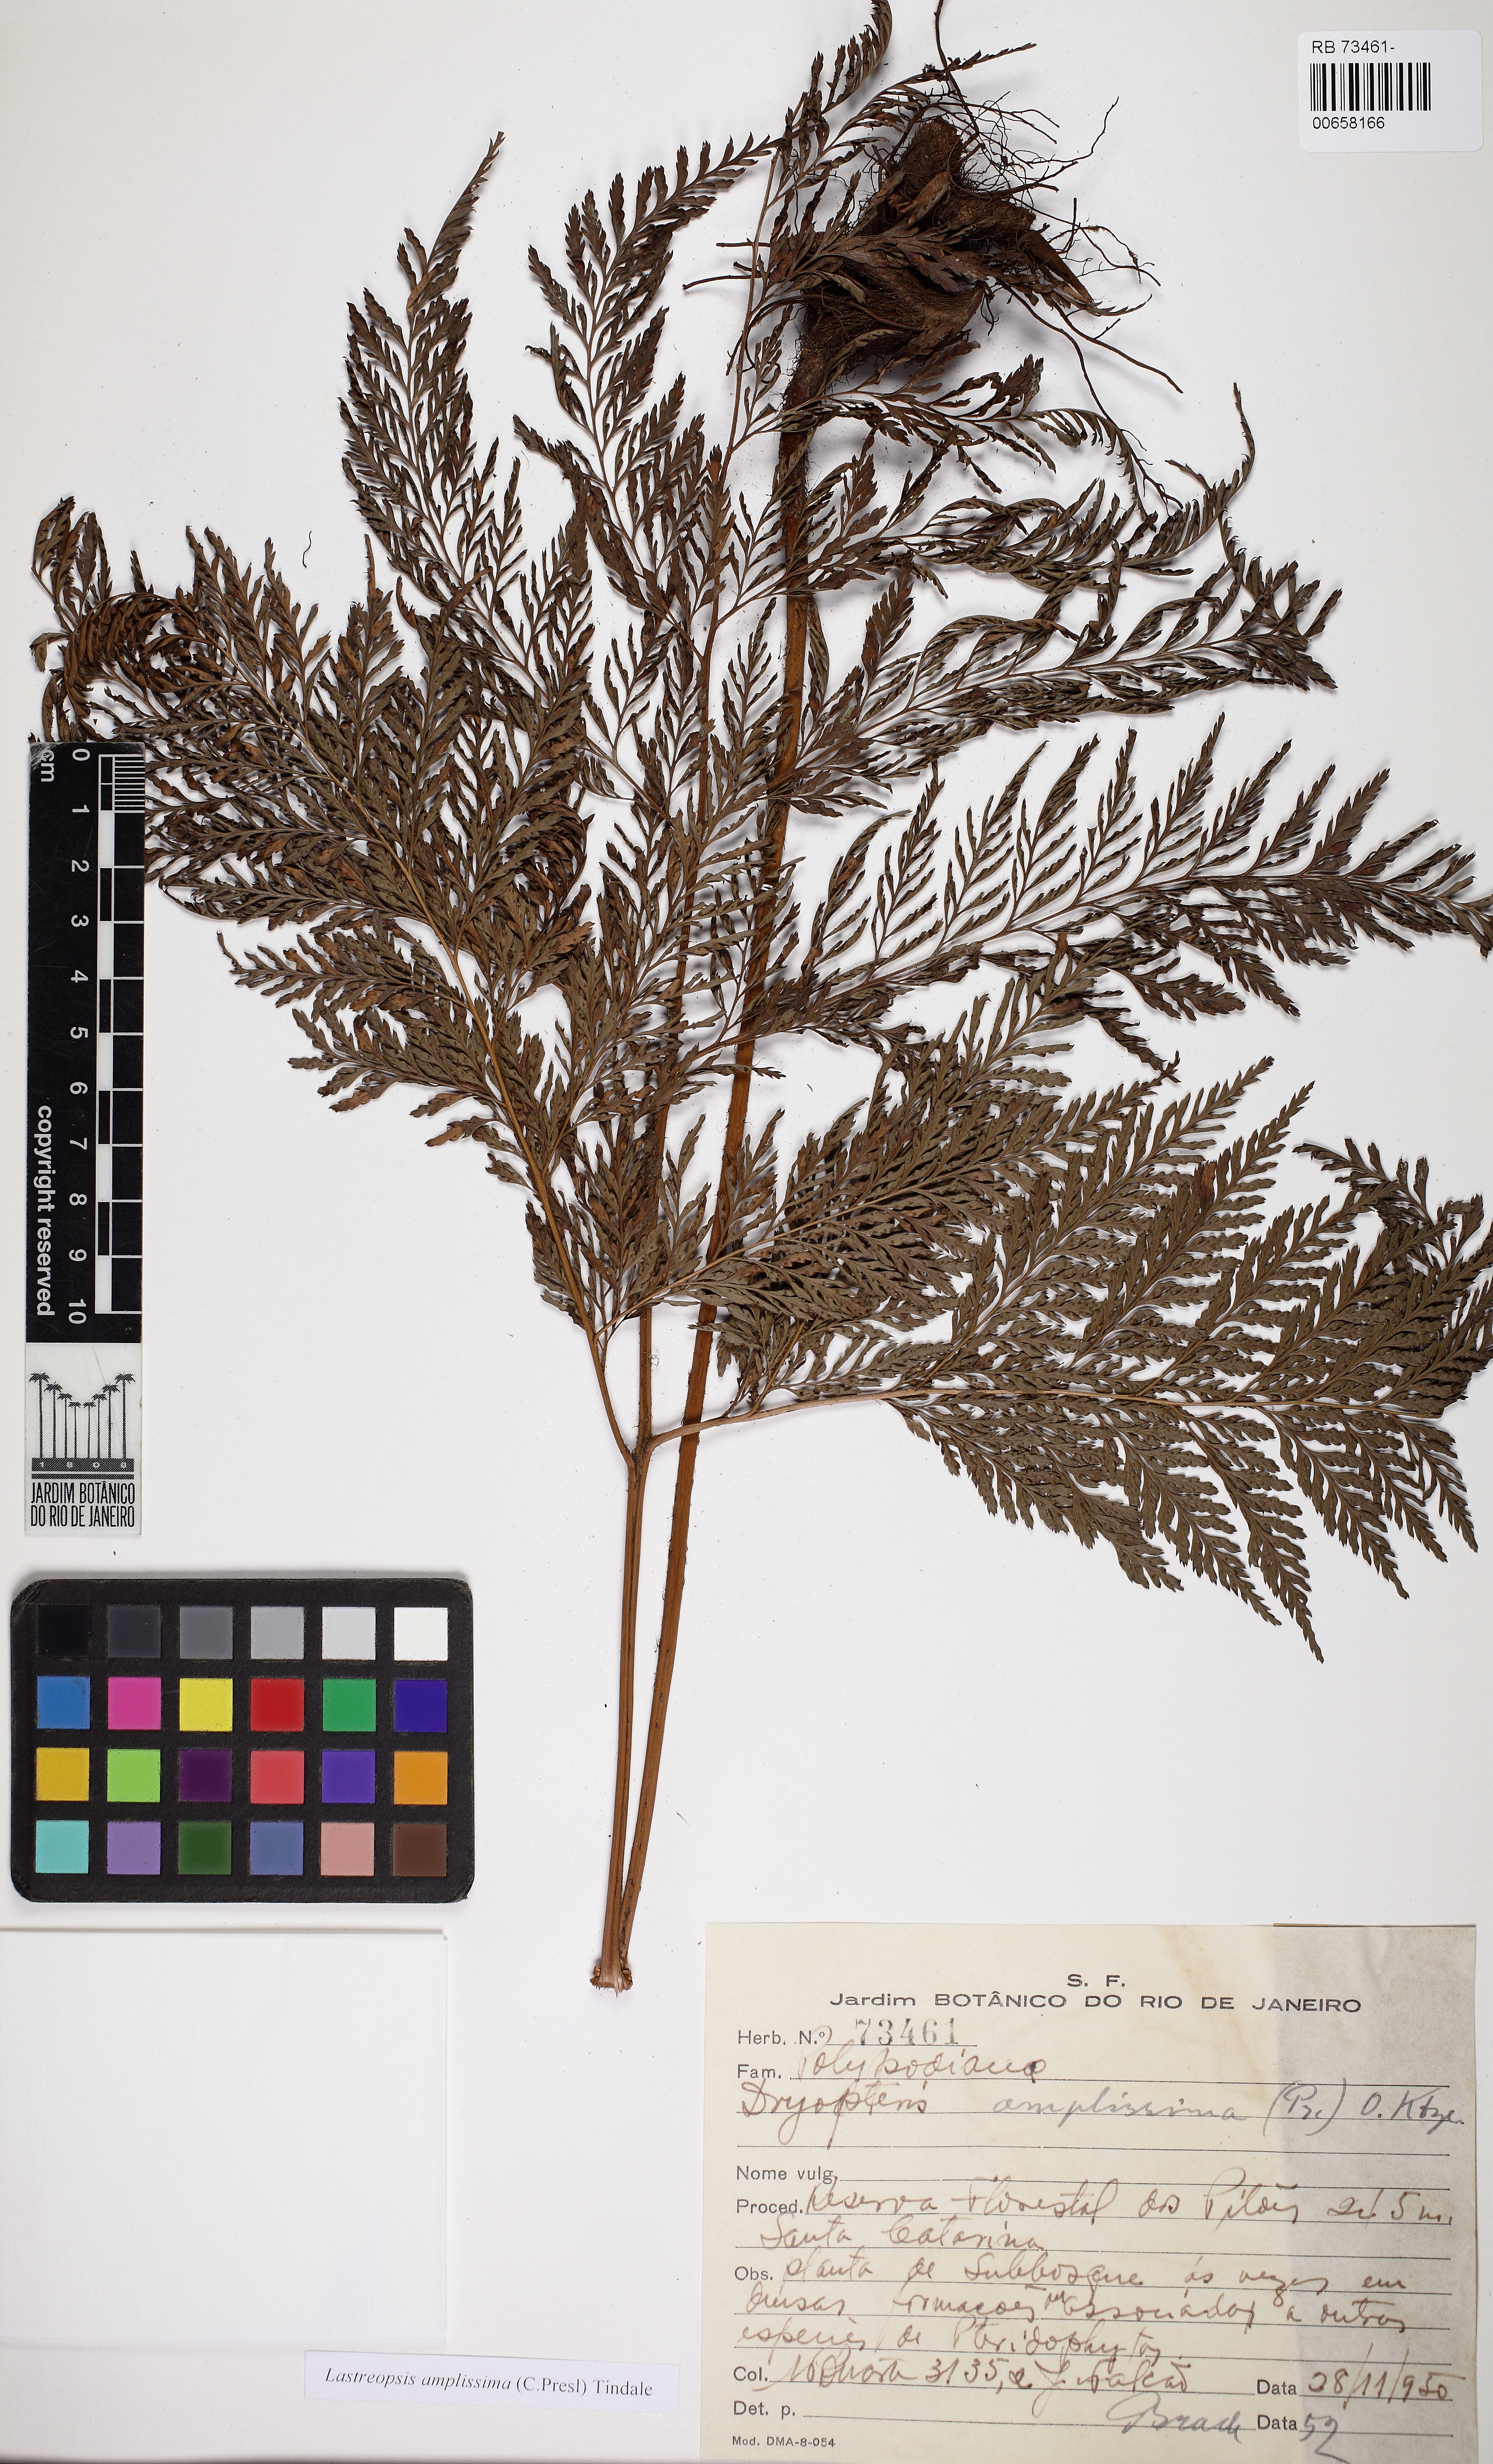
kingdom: Plantae
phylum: Tracheophyta
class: Polypodiopsida
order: Polypodiales
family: Dryopteridaceae
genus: Lastreopsis
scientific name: Lastreopsis amplissima
